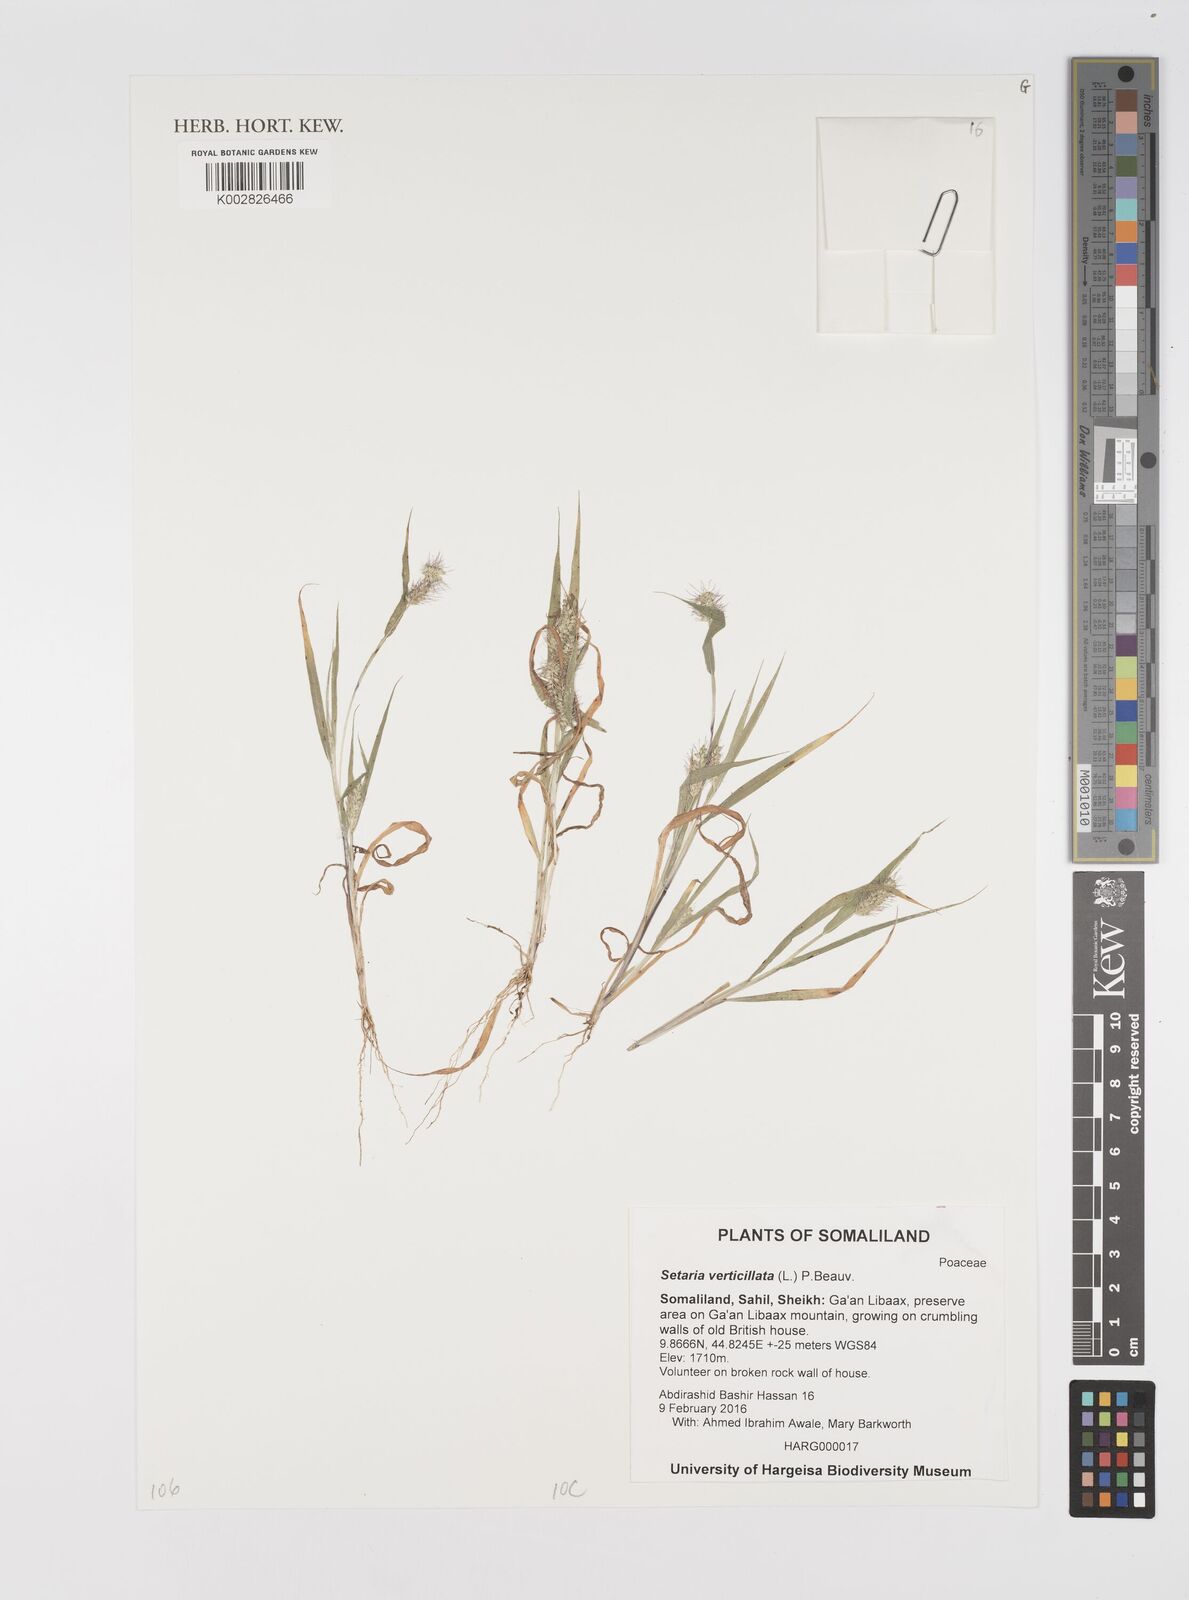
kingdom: Plantae
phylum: Tracheophyta
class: Liliopsida
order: Poales
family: Poaceae
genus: Setaria
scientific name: Setaria verticillata
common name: Hooked bristlegrass
